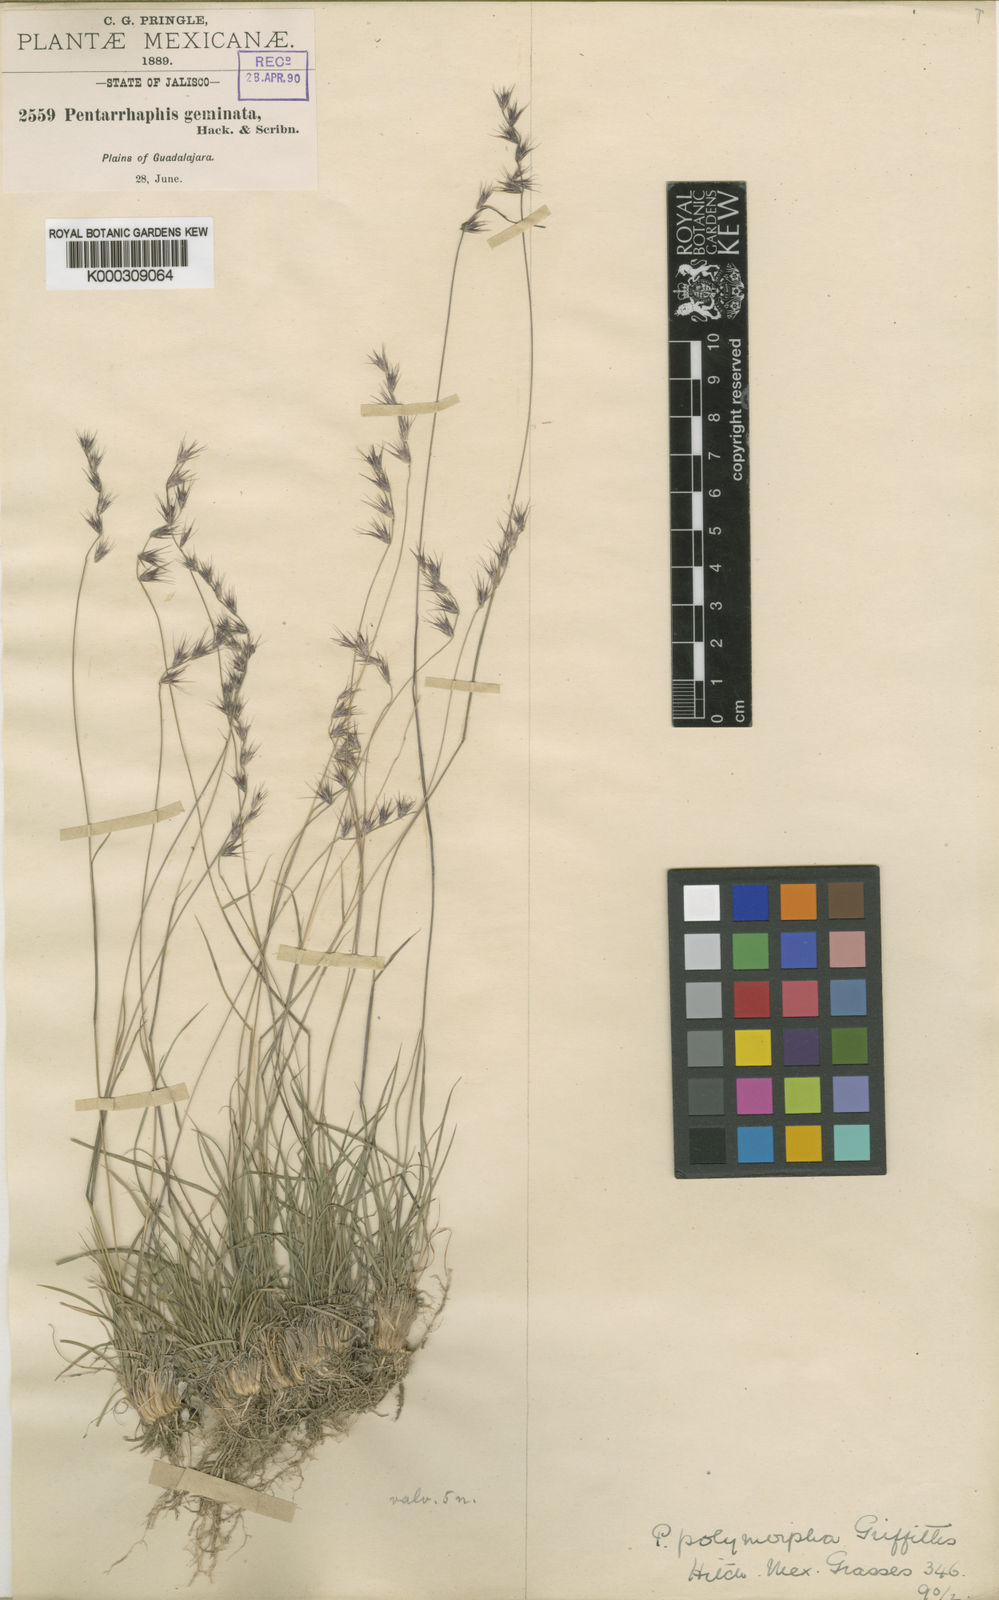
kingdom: Plantae
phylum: Tracheophyta
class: Liliopsida
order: Poales
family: Poaceae
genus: Bouteloua
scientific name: Bouteloua polymorpha
